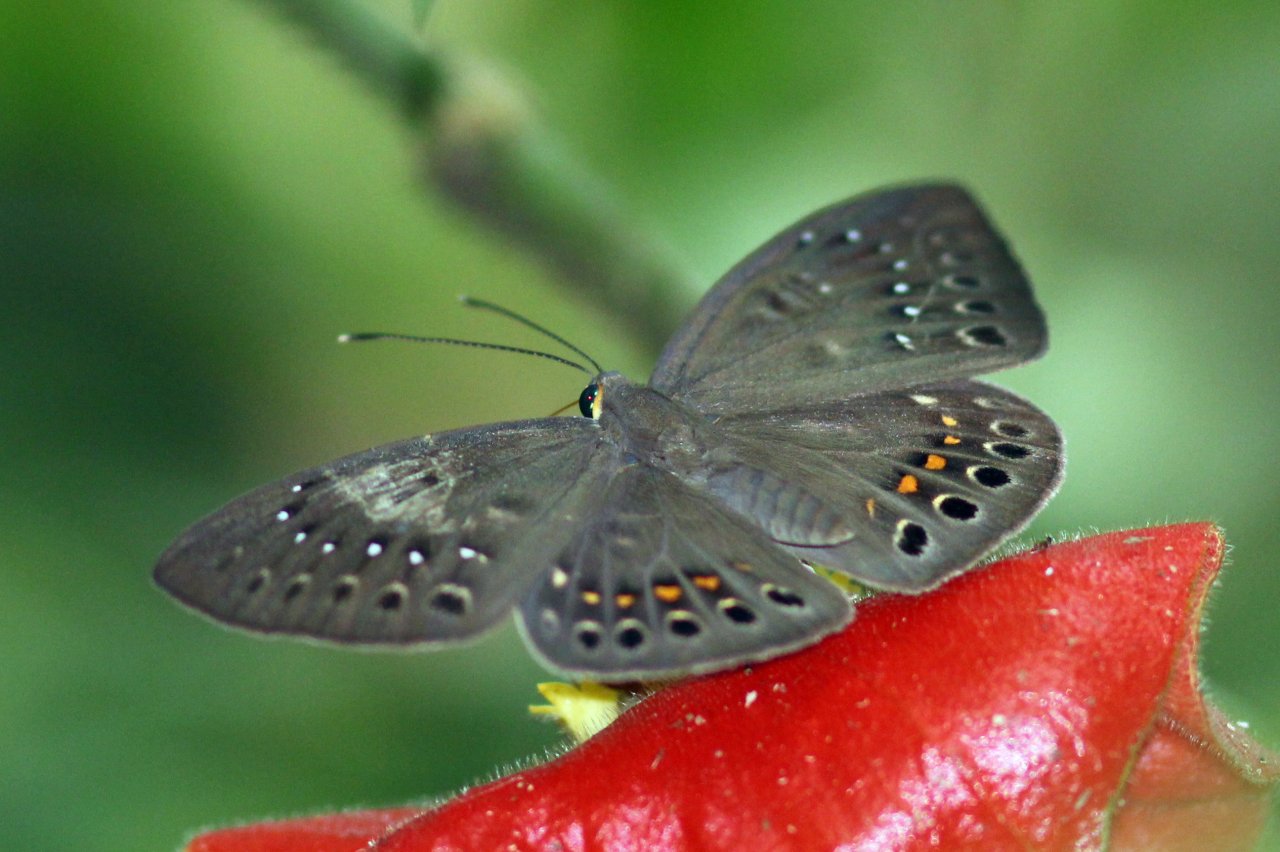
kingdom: Animalia
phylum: Cnidaria
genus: Eurybia
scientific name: Eurybia elvina
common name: Blind Eurybia
